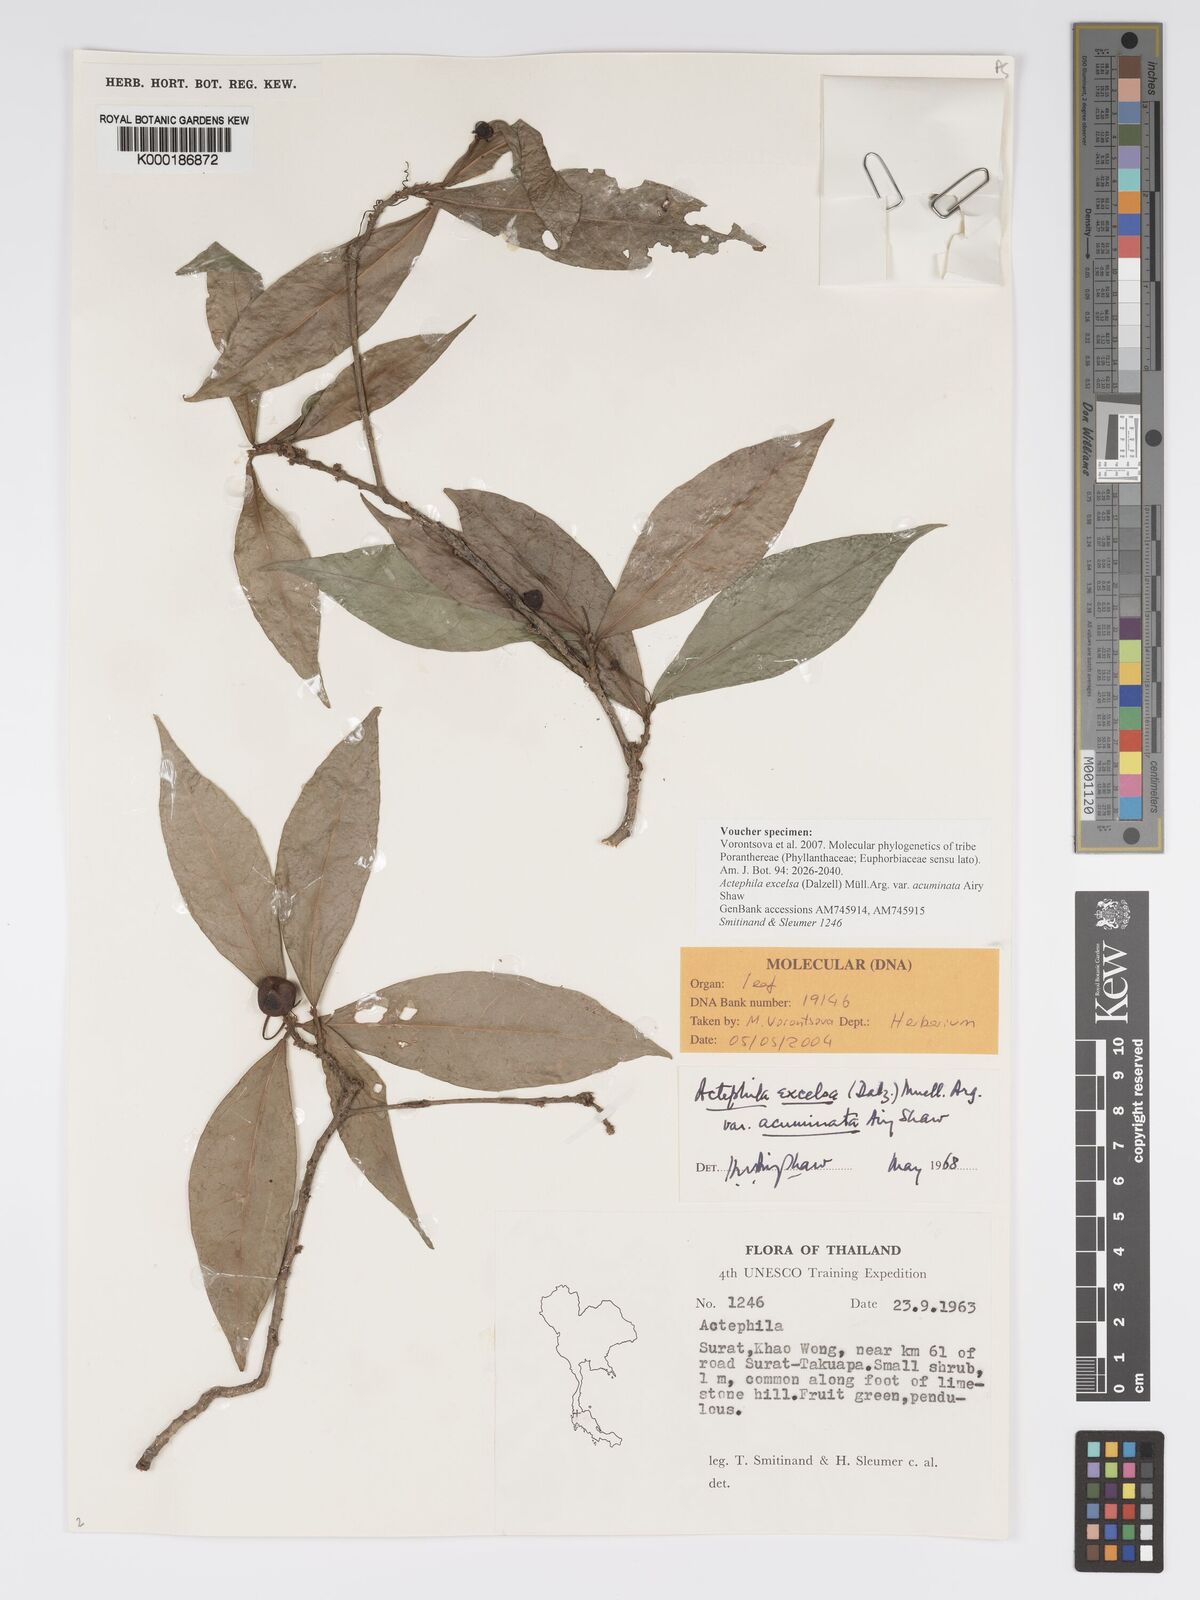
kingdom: Plantae
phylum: Tracheophyta
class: Magnoliopsida
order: Malpighiales
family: Phyllanthaceae
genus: Actephila
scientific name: Actephila subsessilis
